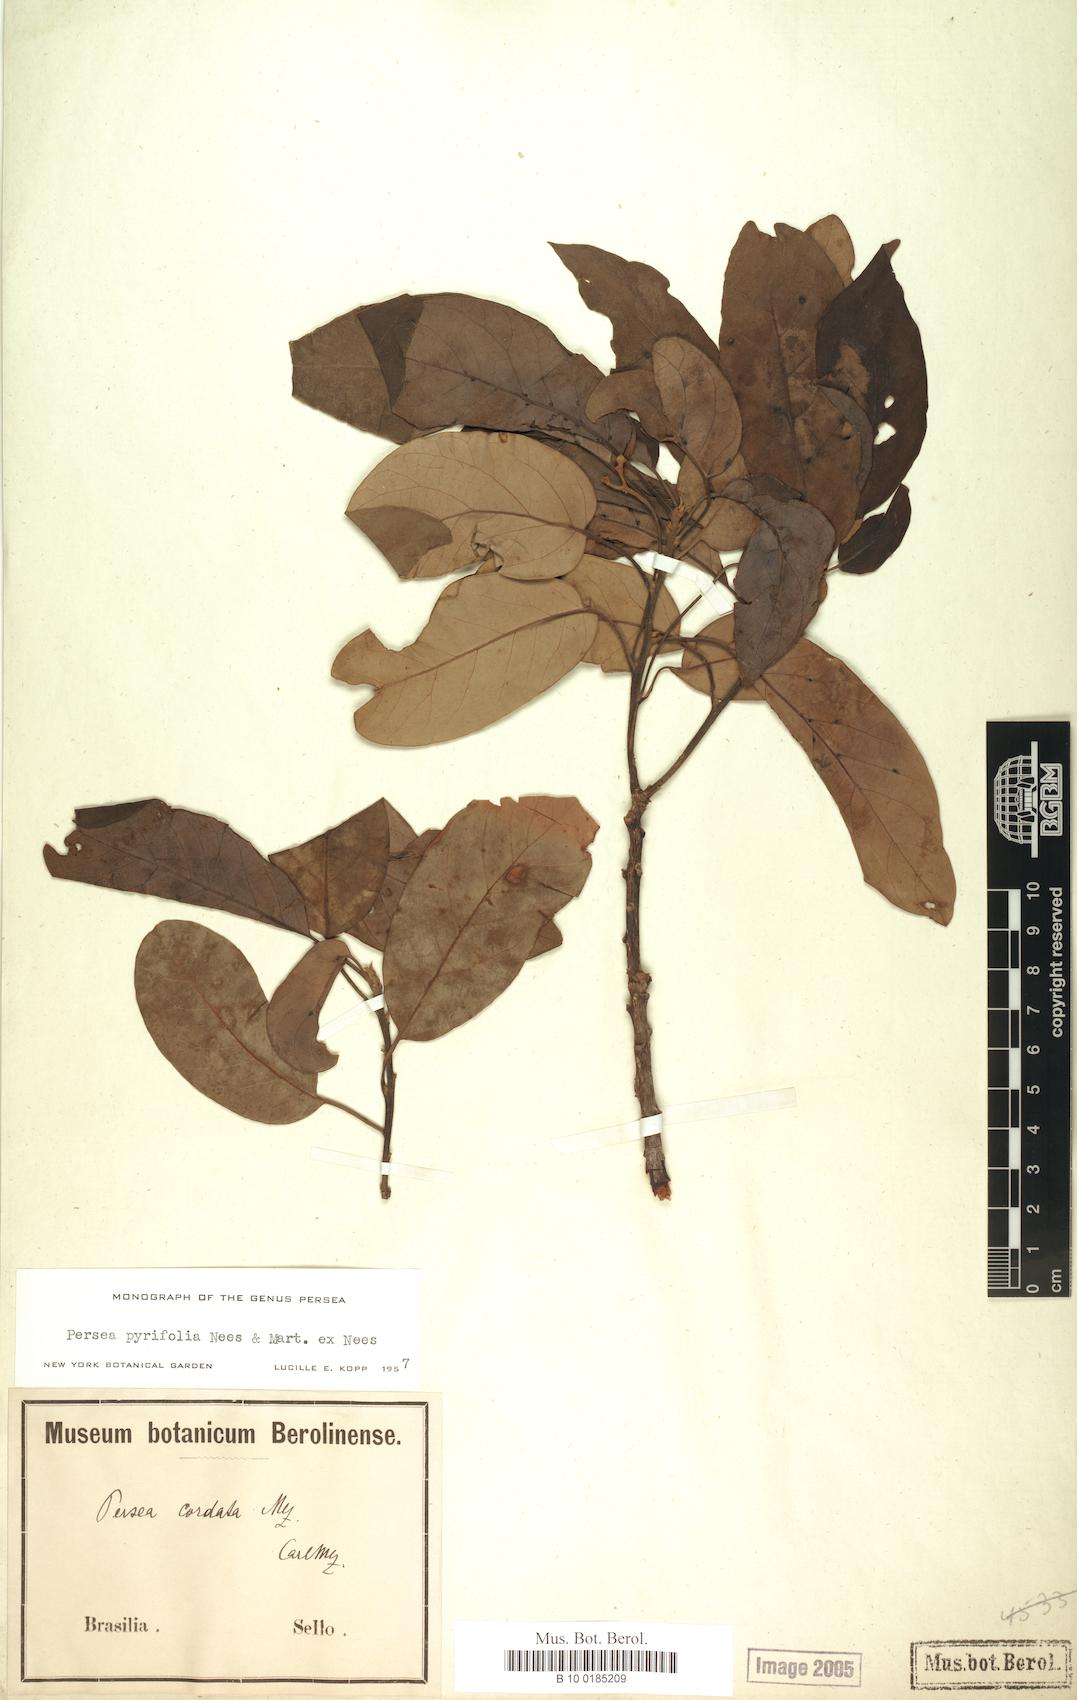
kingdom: Plantae
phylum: Tracheophyta
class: Magnoliopsida
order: Laurales
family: Lauraceae
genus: Persea
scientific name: Persea pyrifolia
